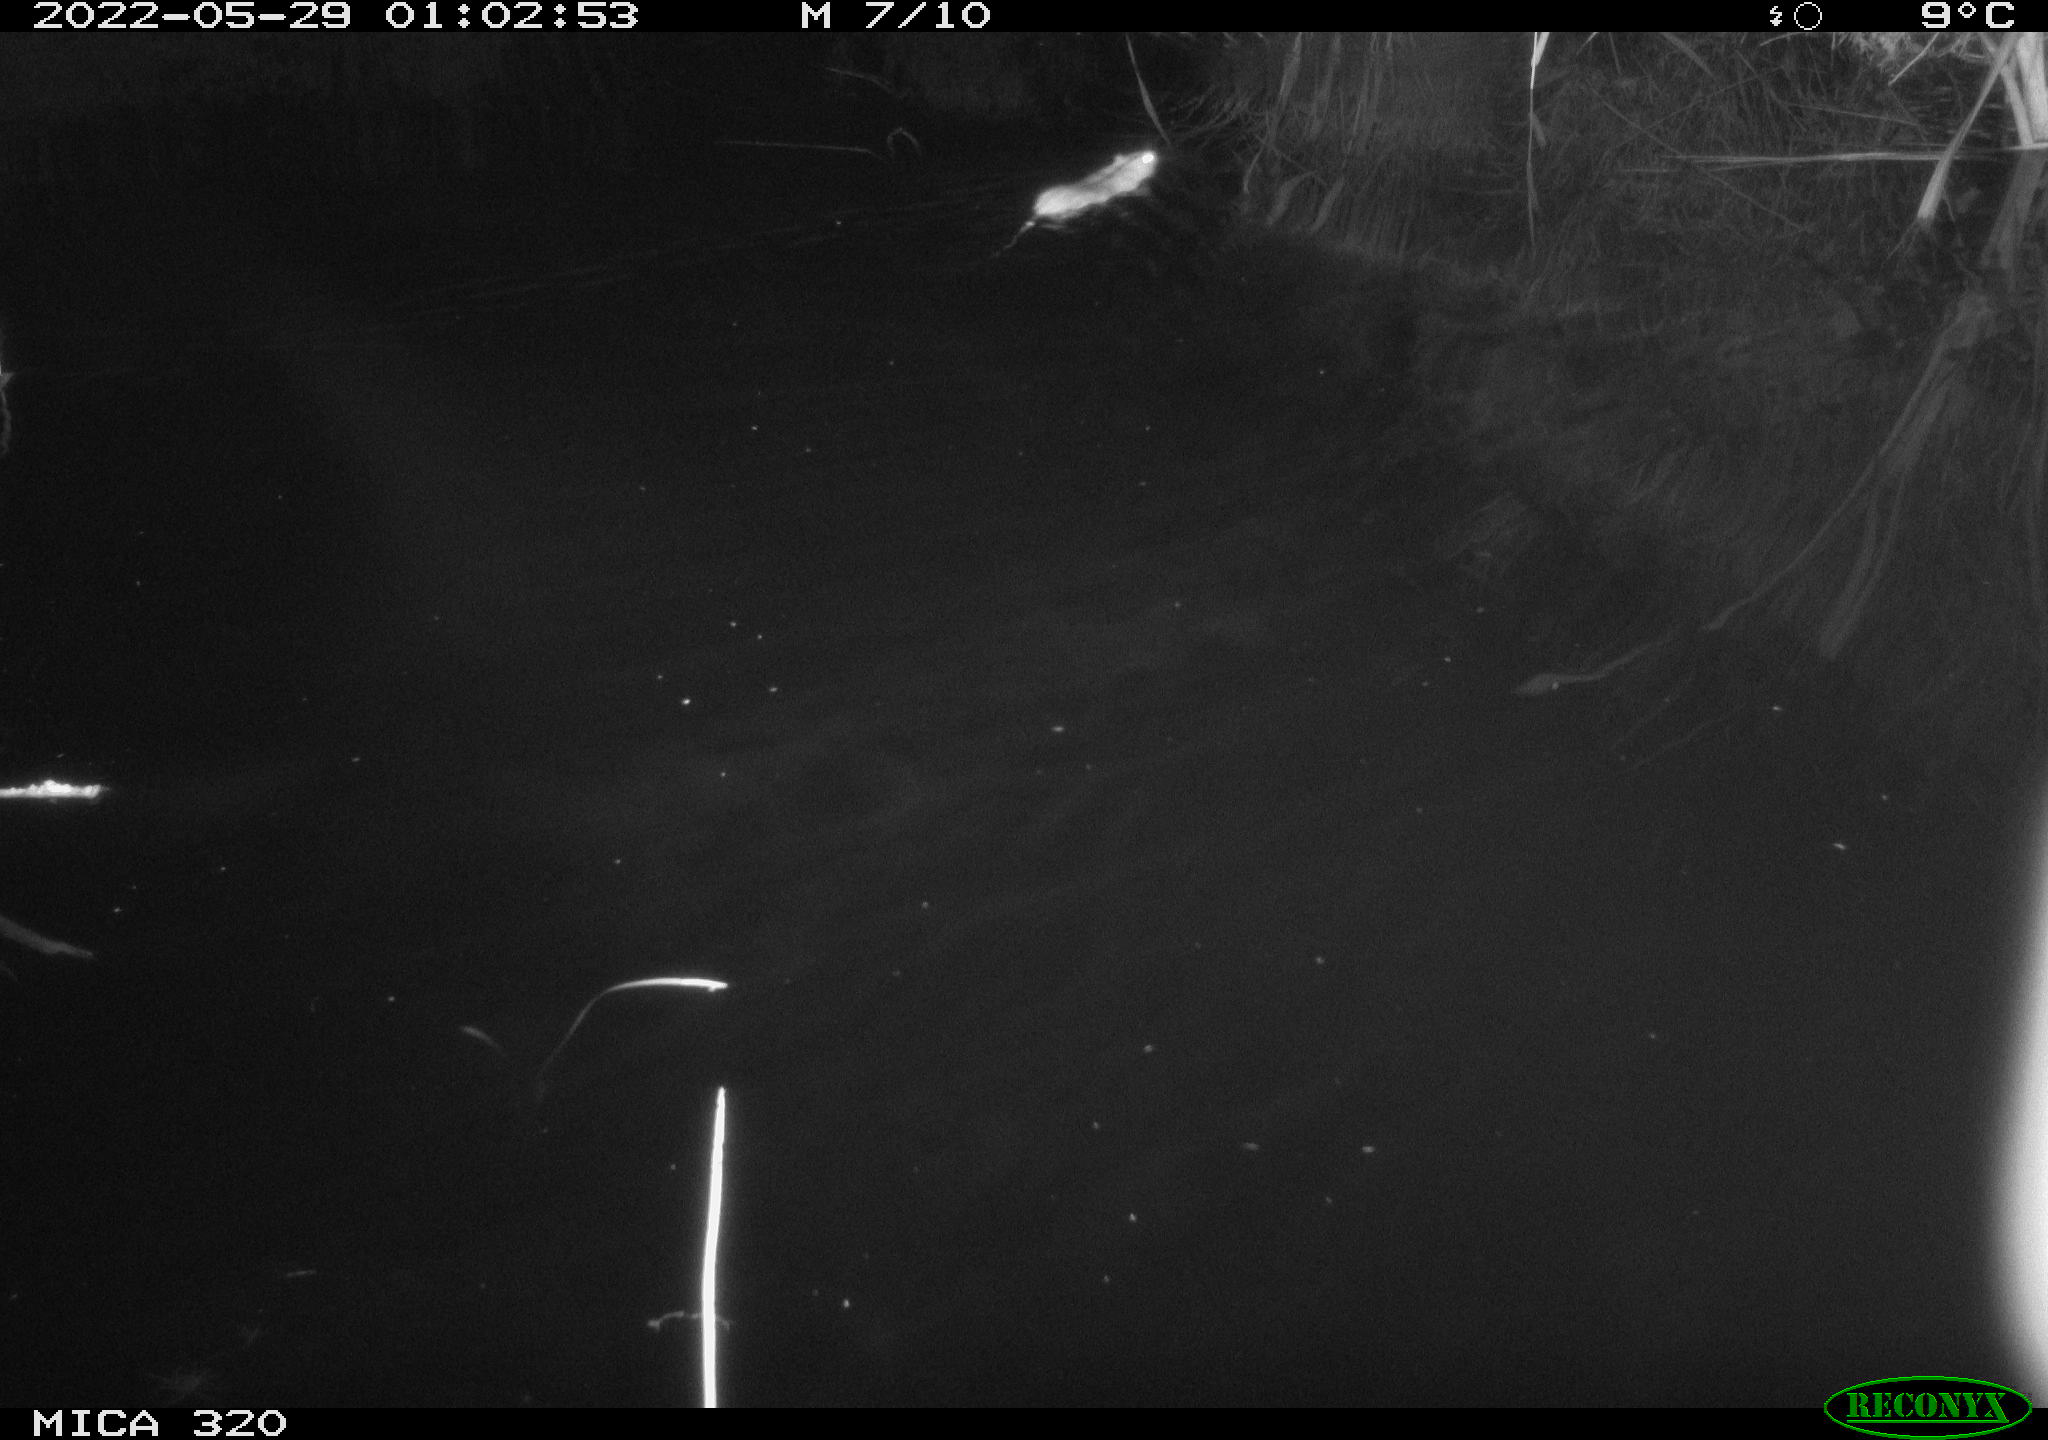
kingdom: Animalia
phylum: Chordata
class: Mammalia
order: Rodentia
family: Muridae
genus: Rattus
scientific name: Rattus norvegicus
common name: Brown rat
